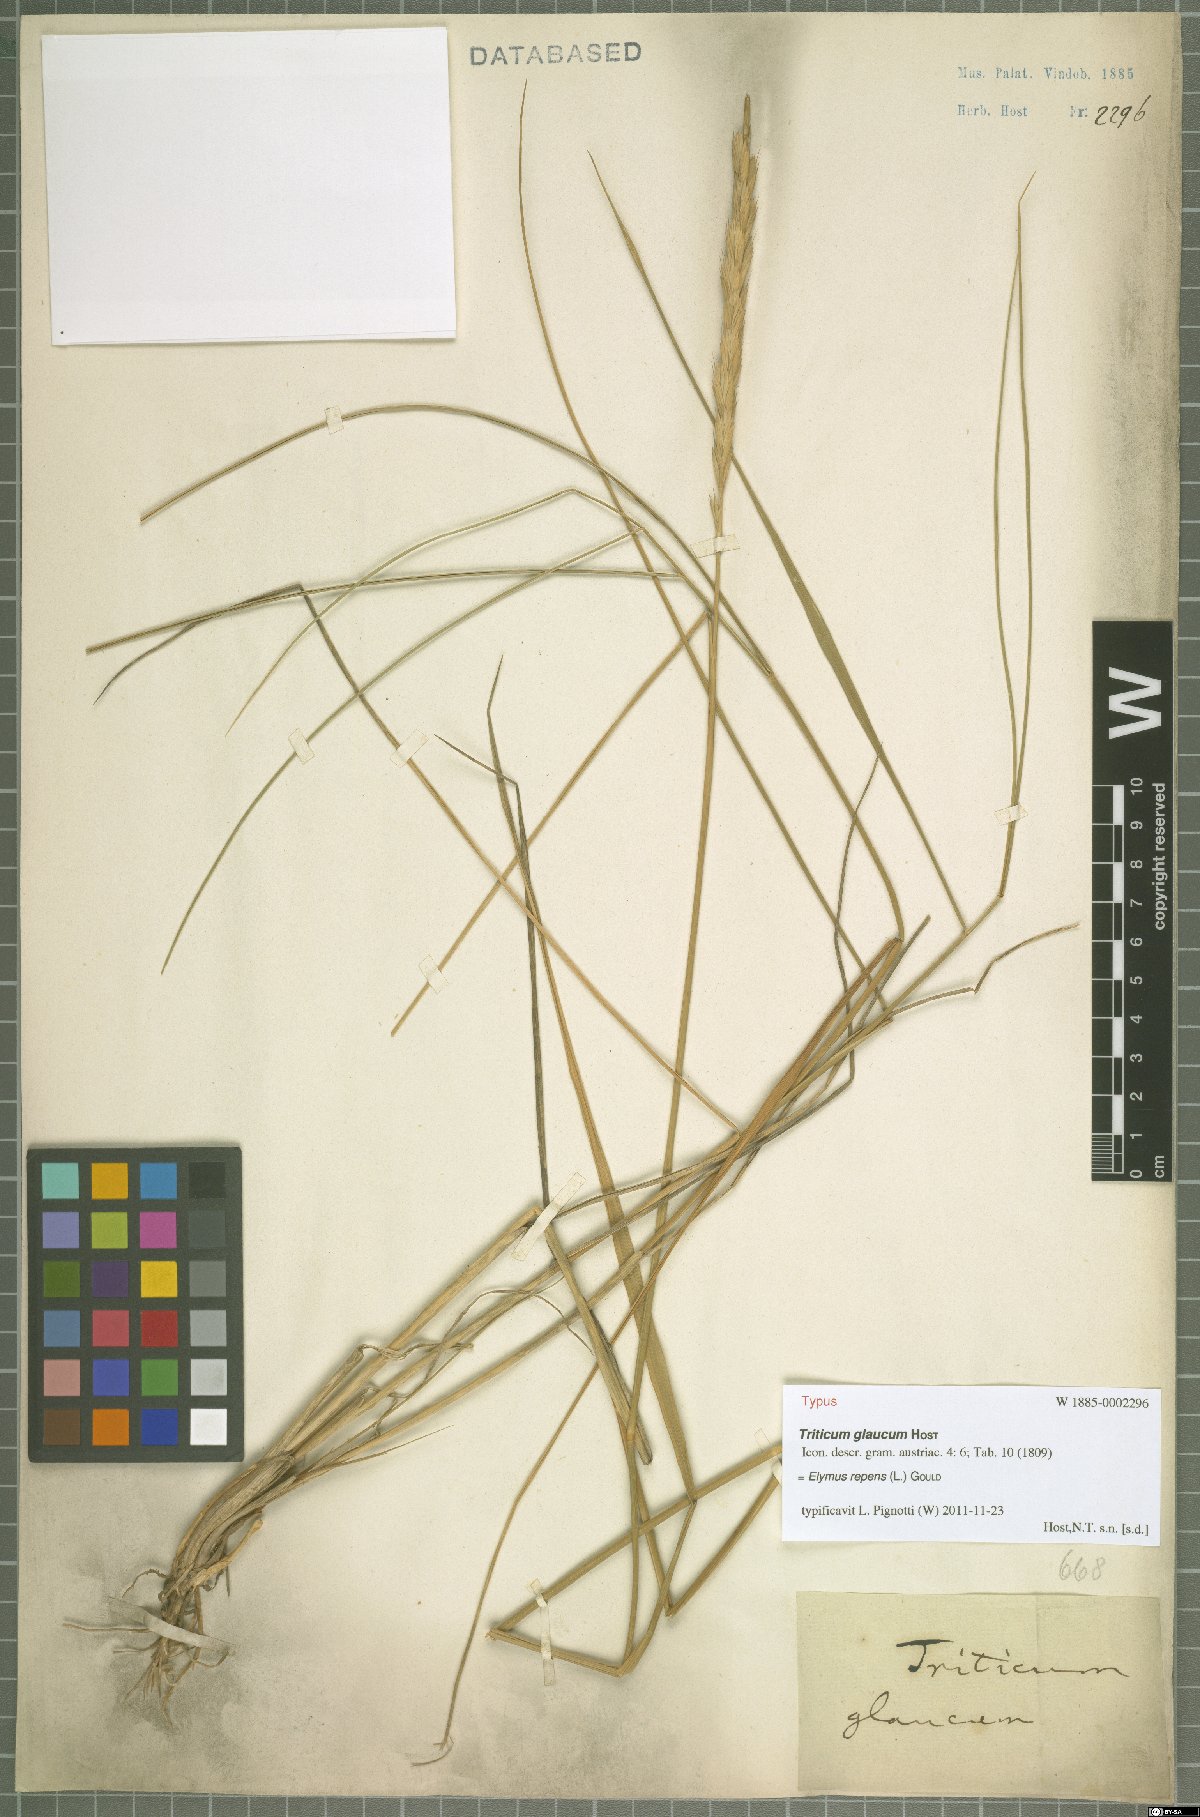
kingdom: Plantae
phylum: Tracheophyta
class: Liliopsida
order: Poales
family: Poaceae
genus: Elymus
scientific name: Elymus repens
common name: Quackgrass
